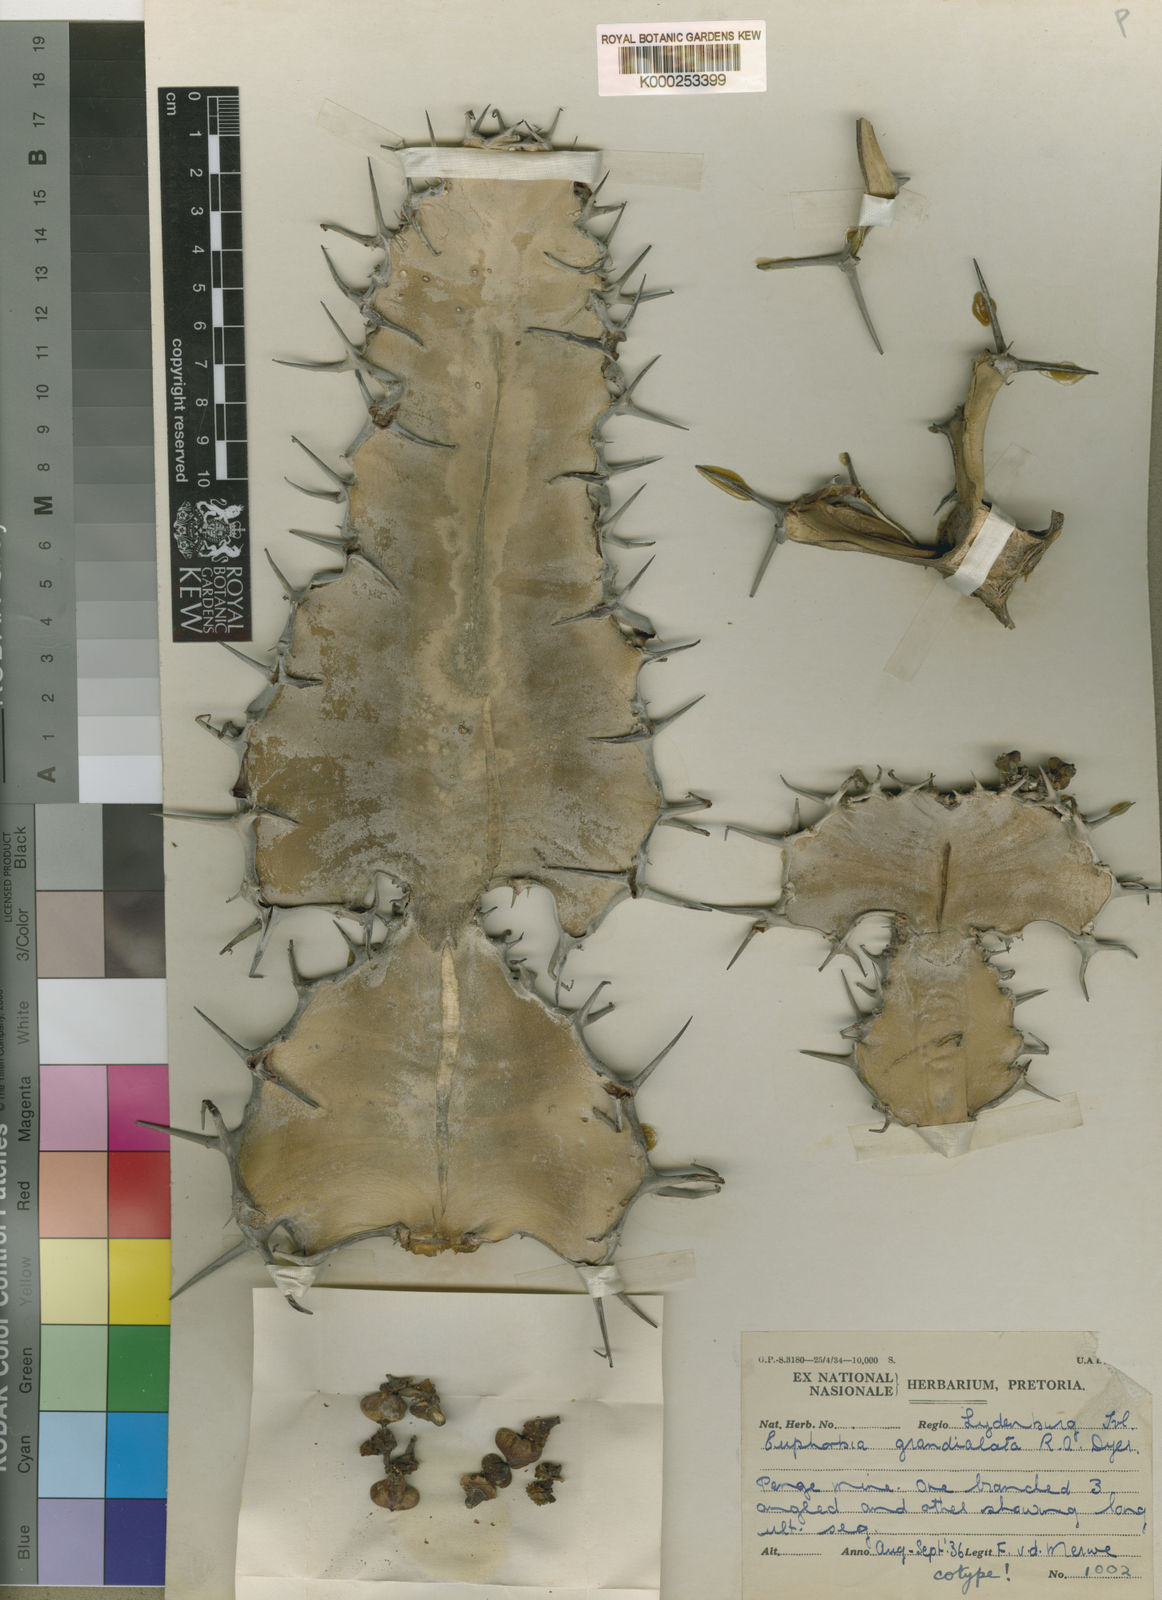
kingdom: Plantae
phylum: Tracheophyta
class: Magnoliopsida
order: Malpighiales
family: Euphorbiaceae
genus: Euphorbia
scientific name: Euphorbia grandialata
